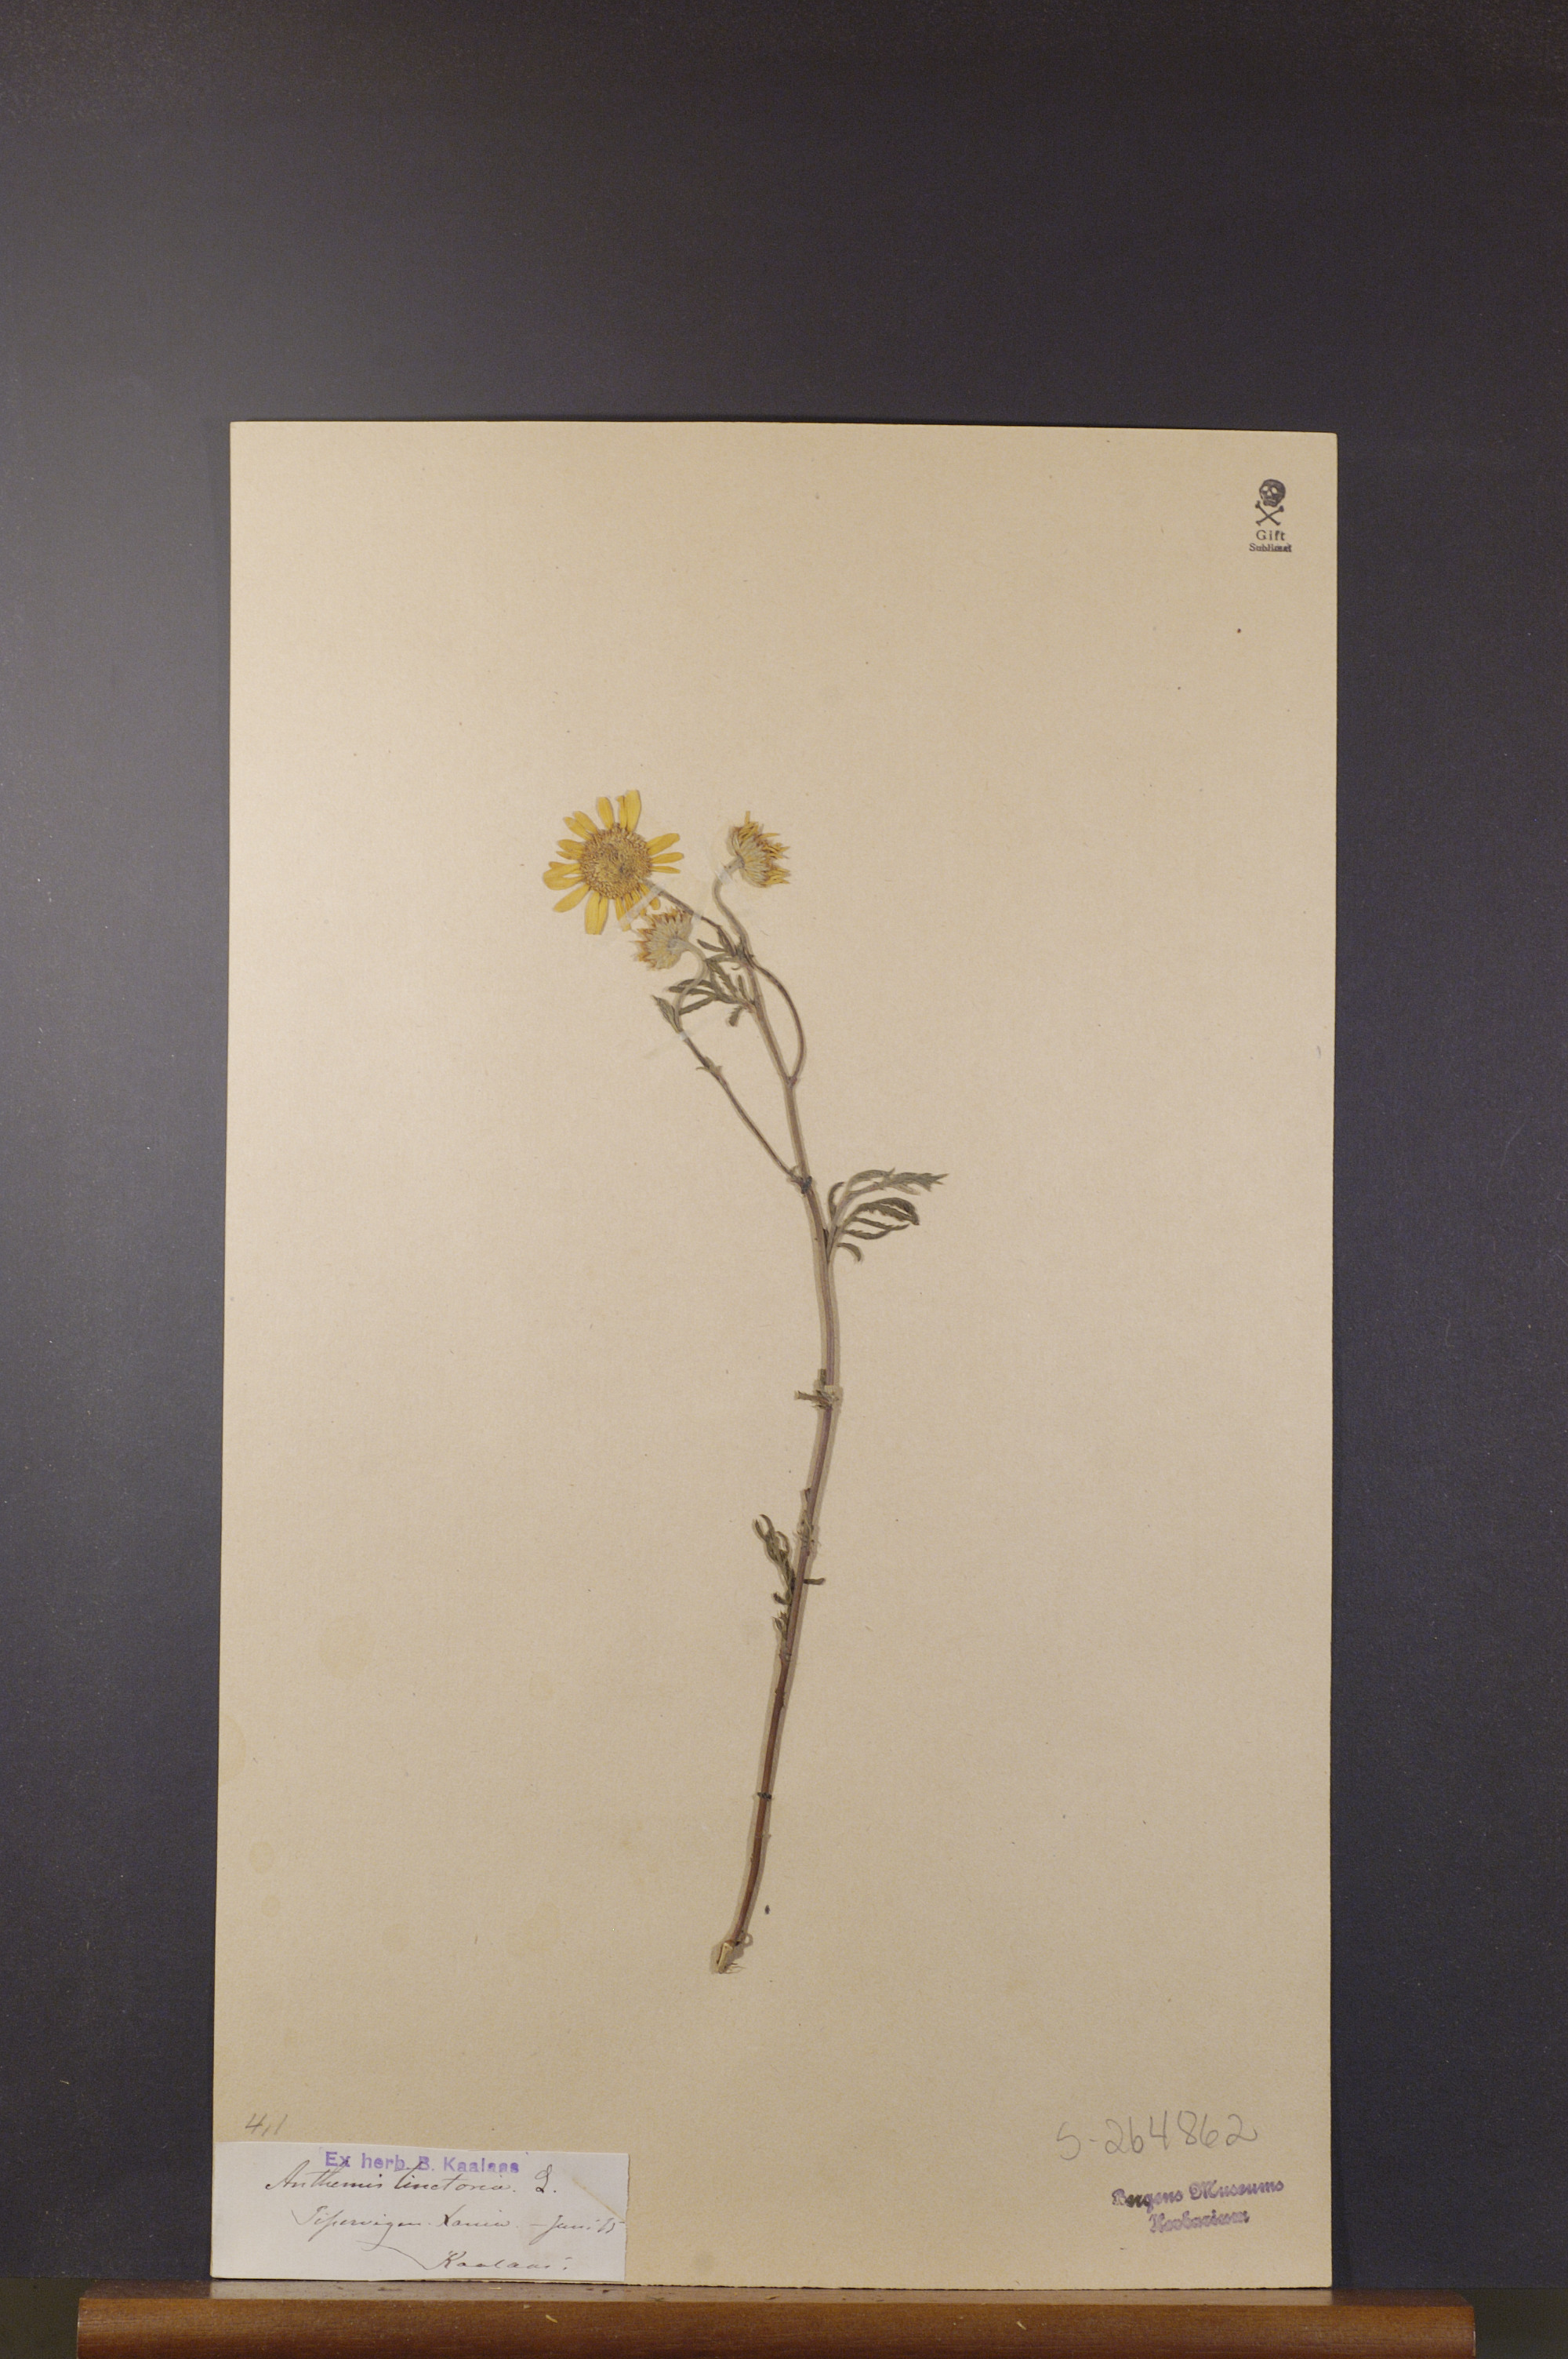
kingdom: Plantae
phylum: Tracheophyta
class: Magnoliopsida
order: Asterales
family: Asteraceae
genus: Cota
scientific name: Cota tinctoria
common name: Golden chamomile
